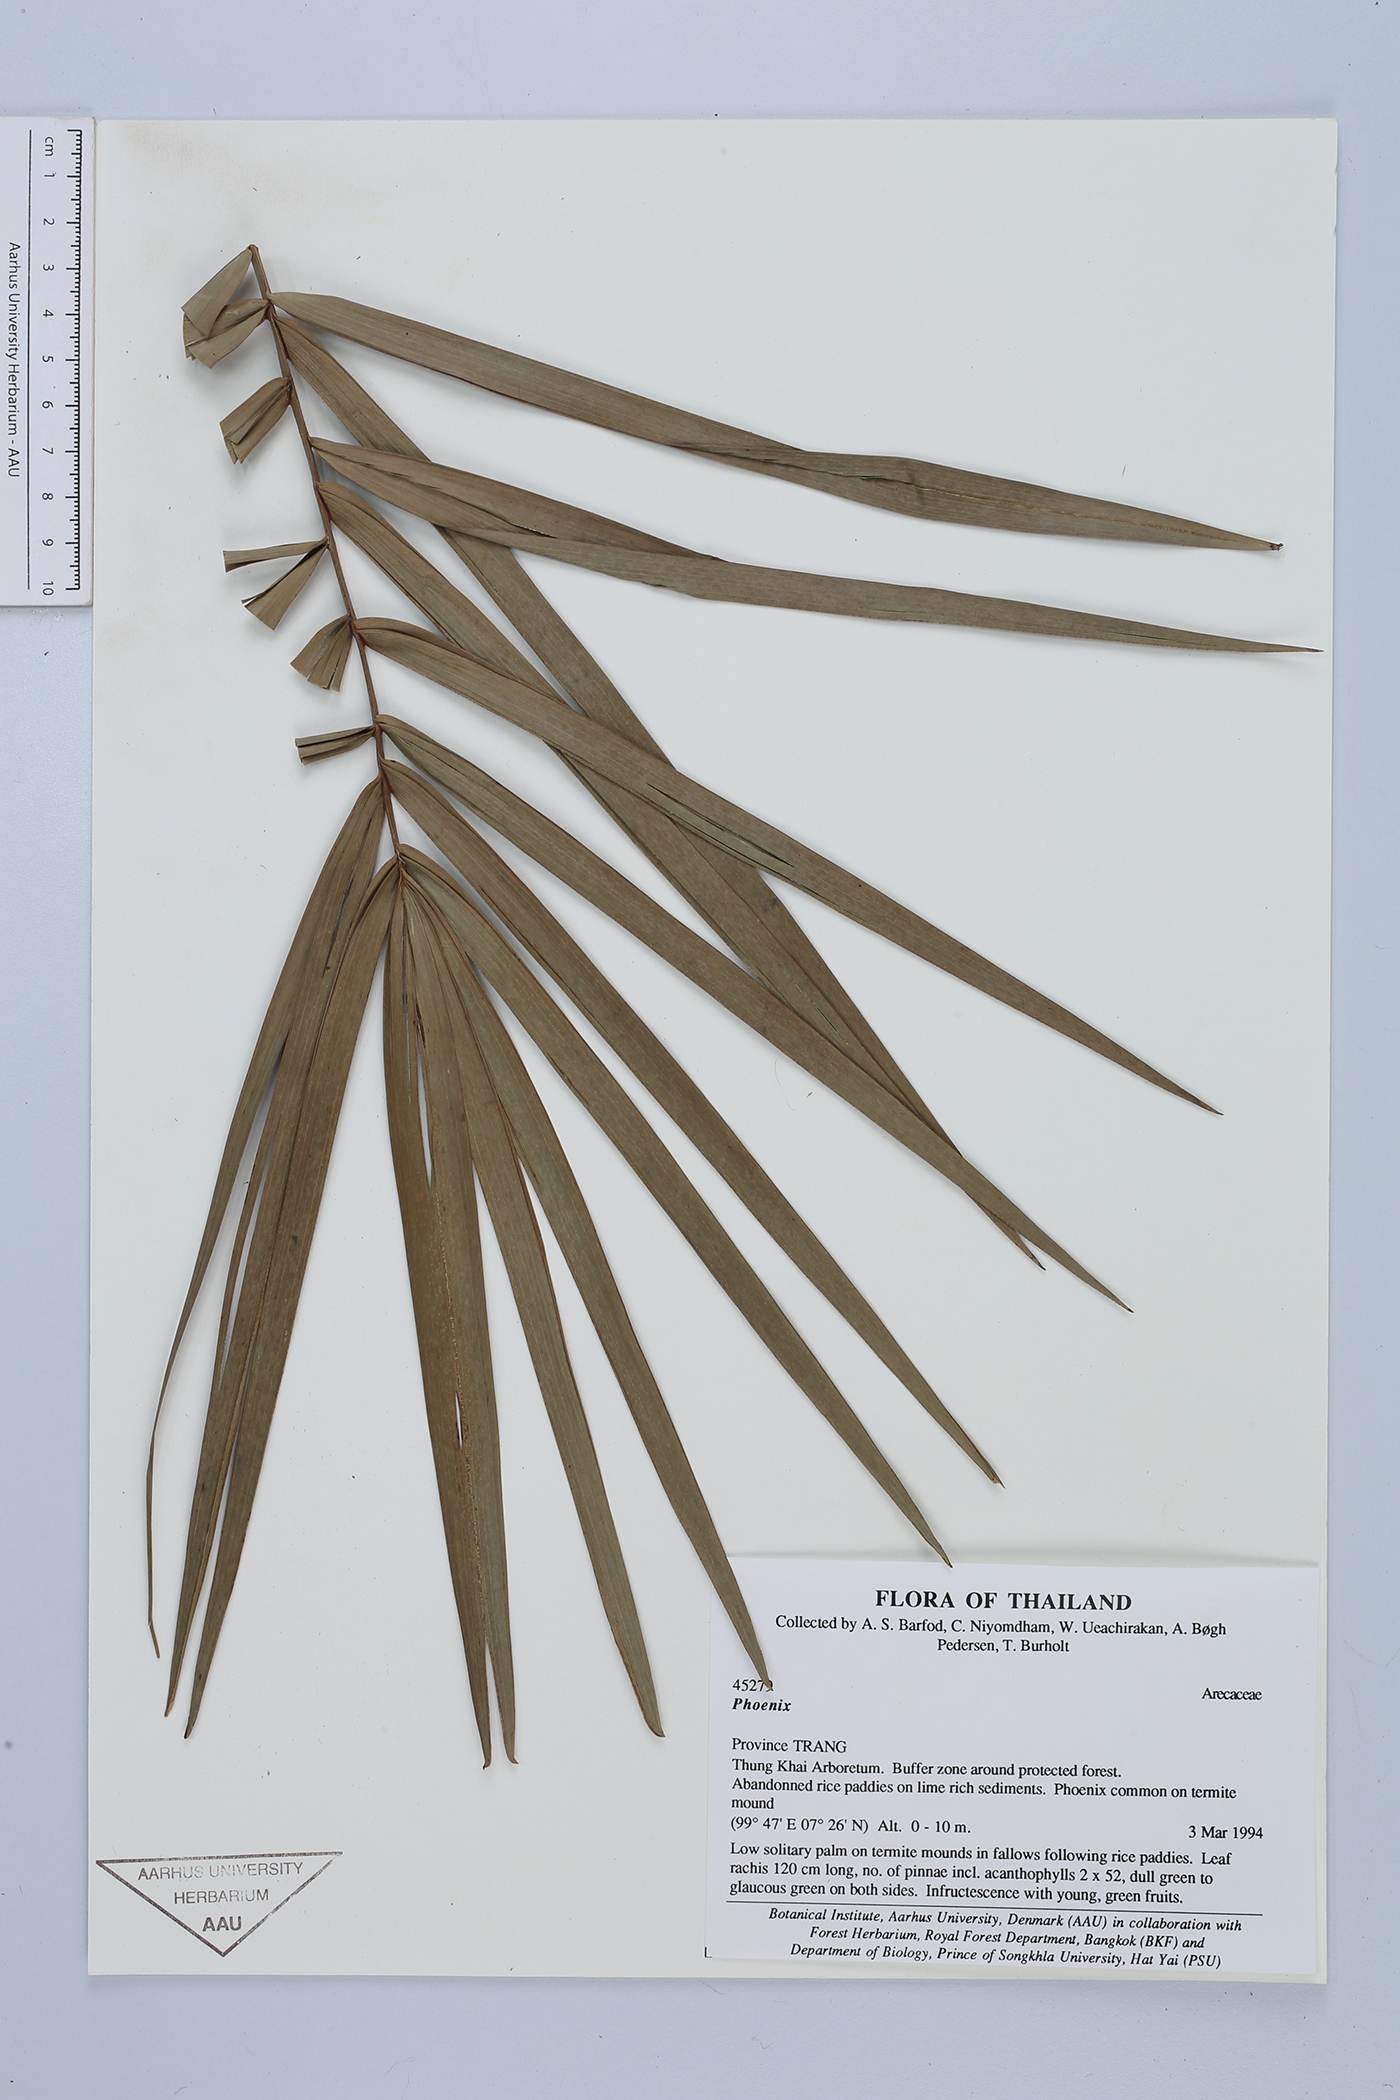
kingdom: Plantae
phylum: Tracheophyta
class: Liliopsida
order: Arecales
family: Arecaceae
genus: Phoenix
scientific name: Phoenix
